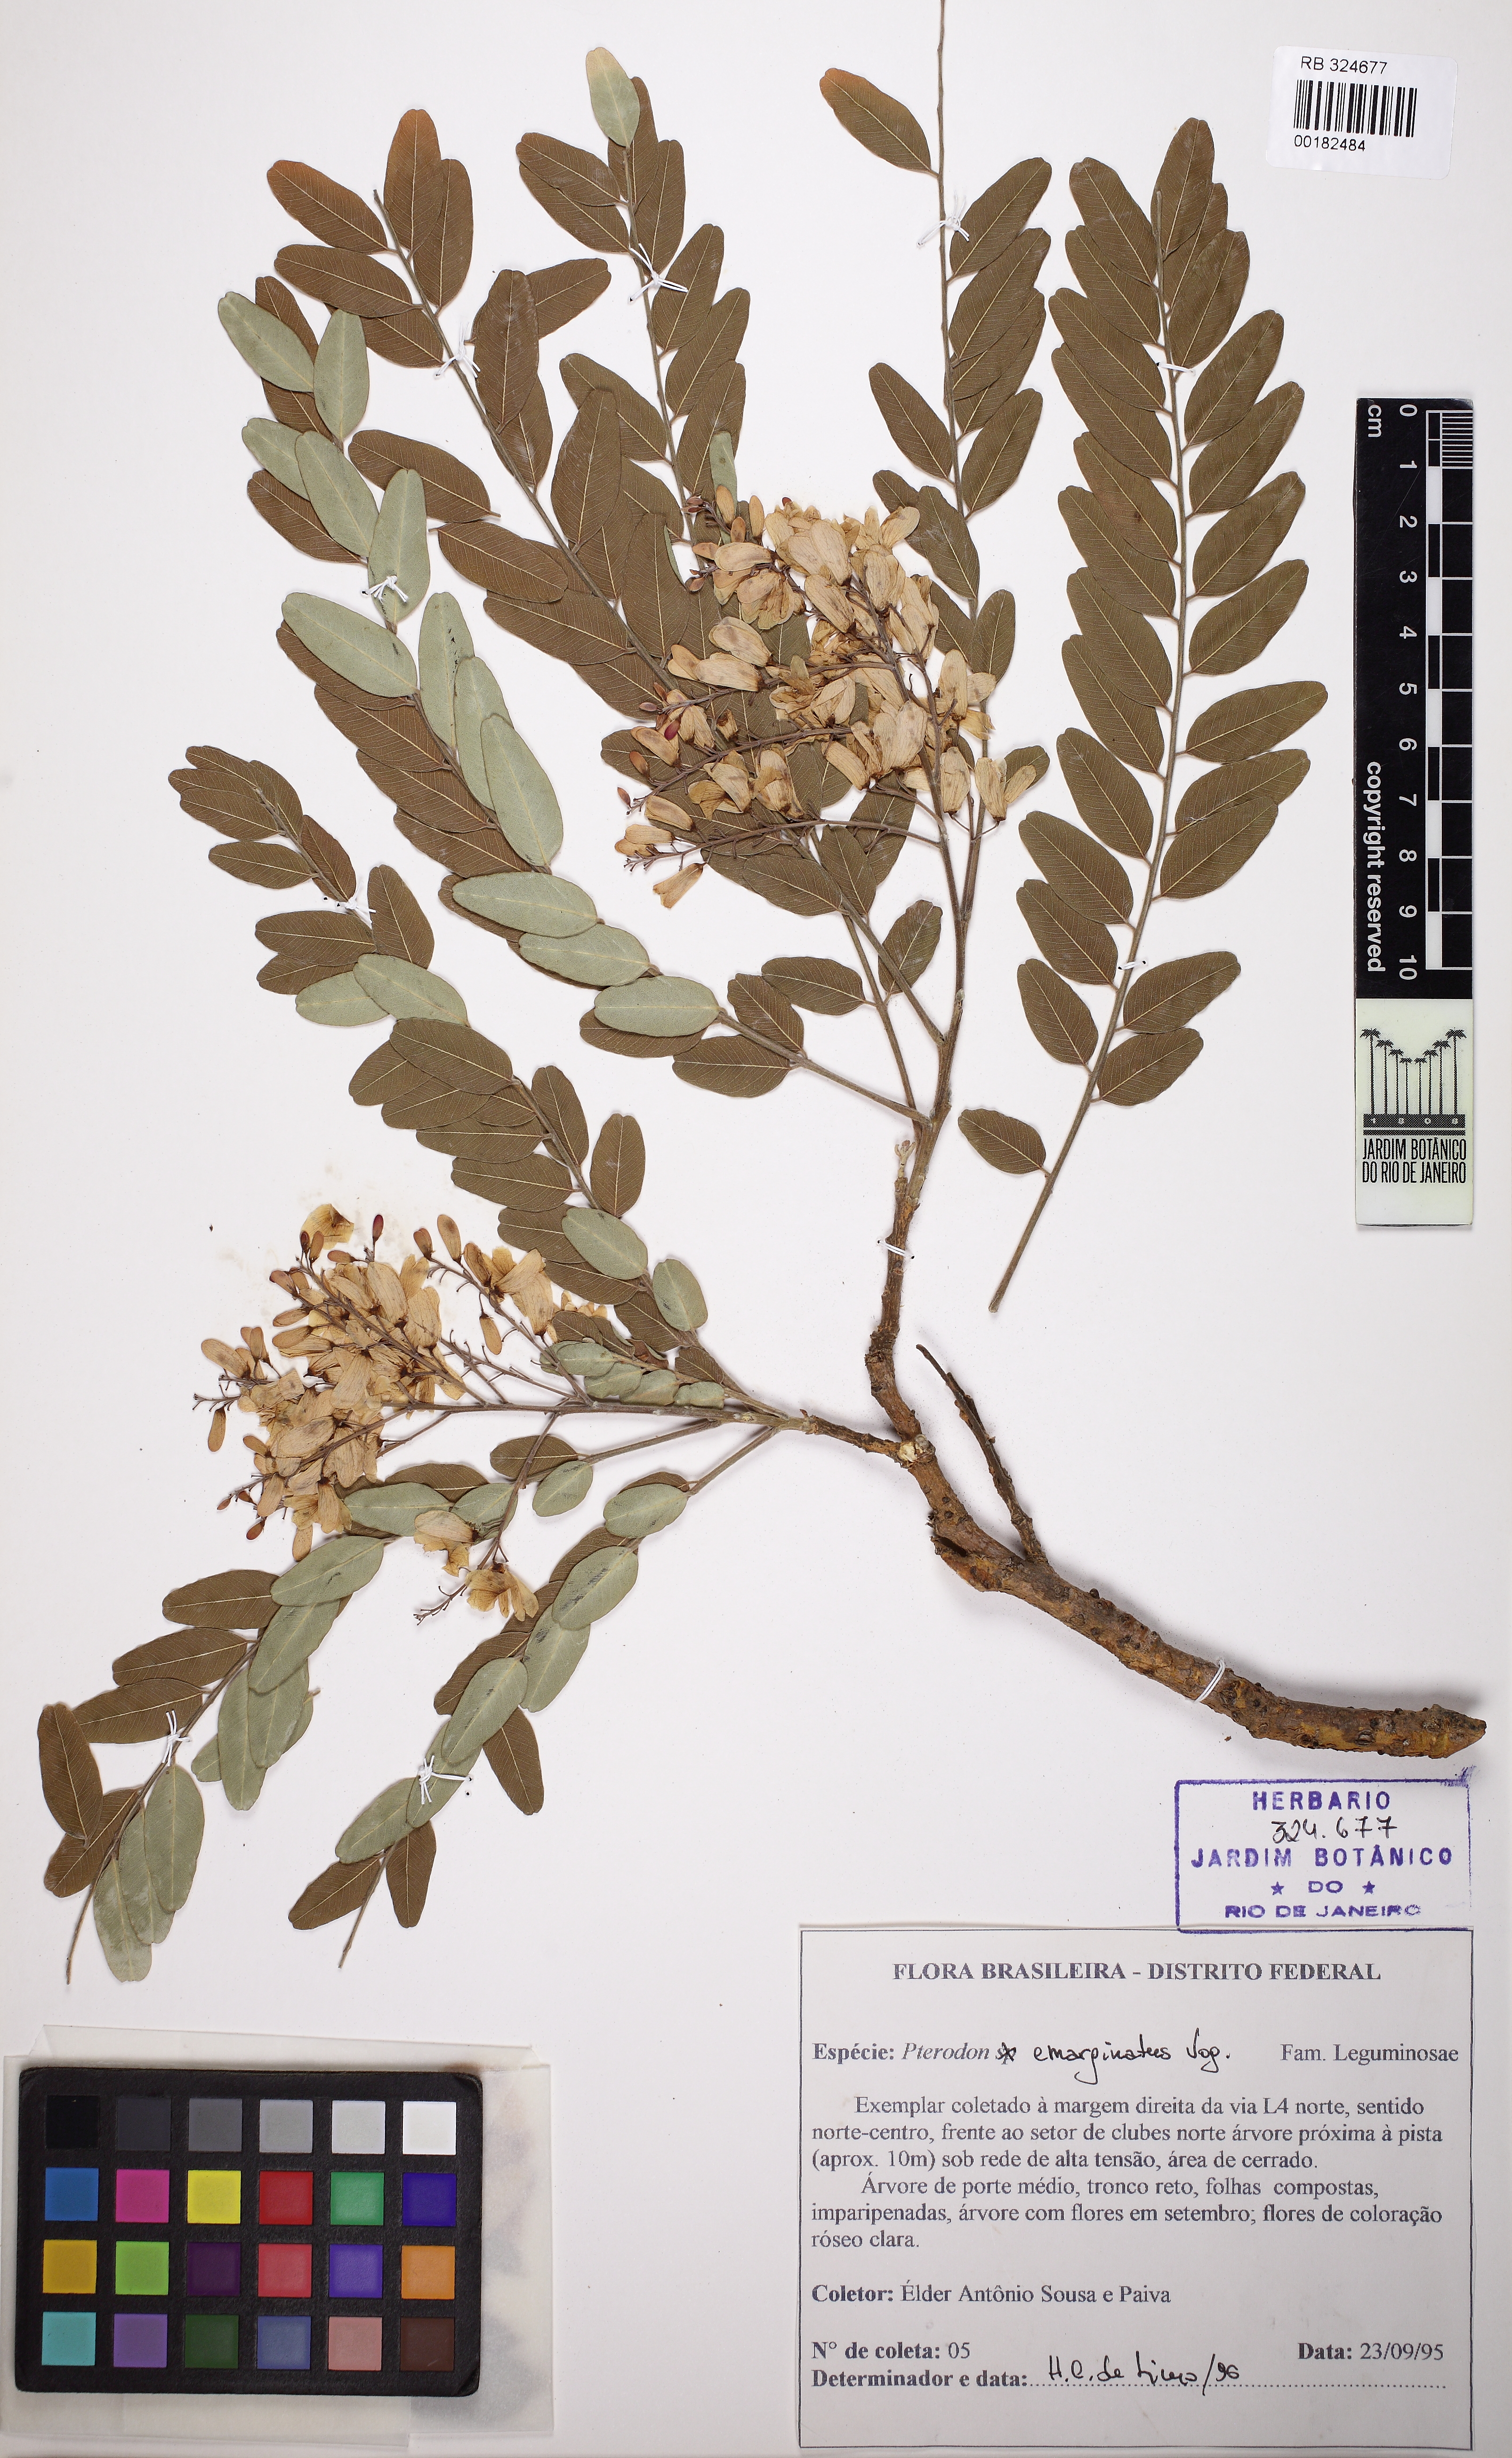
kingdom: Plantae
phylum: Tracheophyta
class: Magnoliopsida
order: Fabales
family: Fabaceae
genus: Pterodon
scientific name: Pterodon emarginatus
